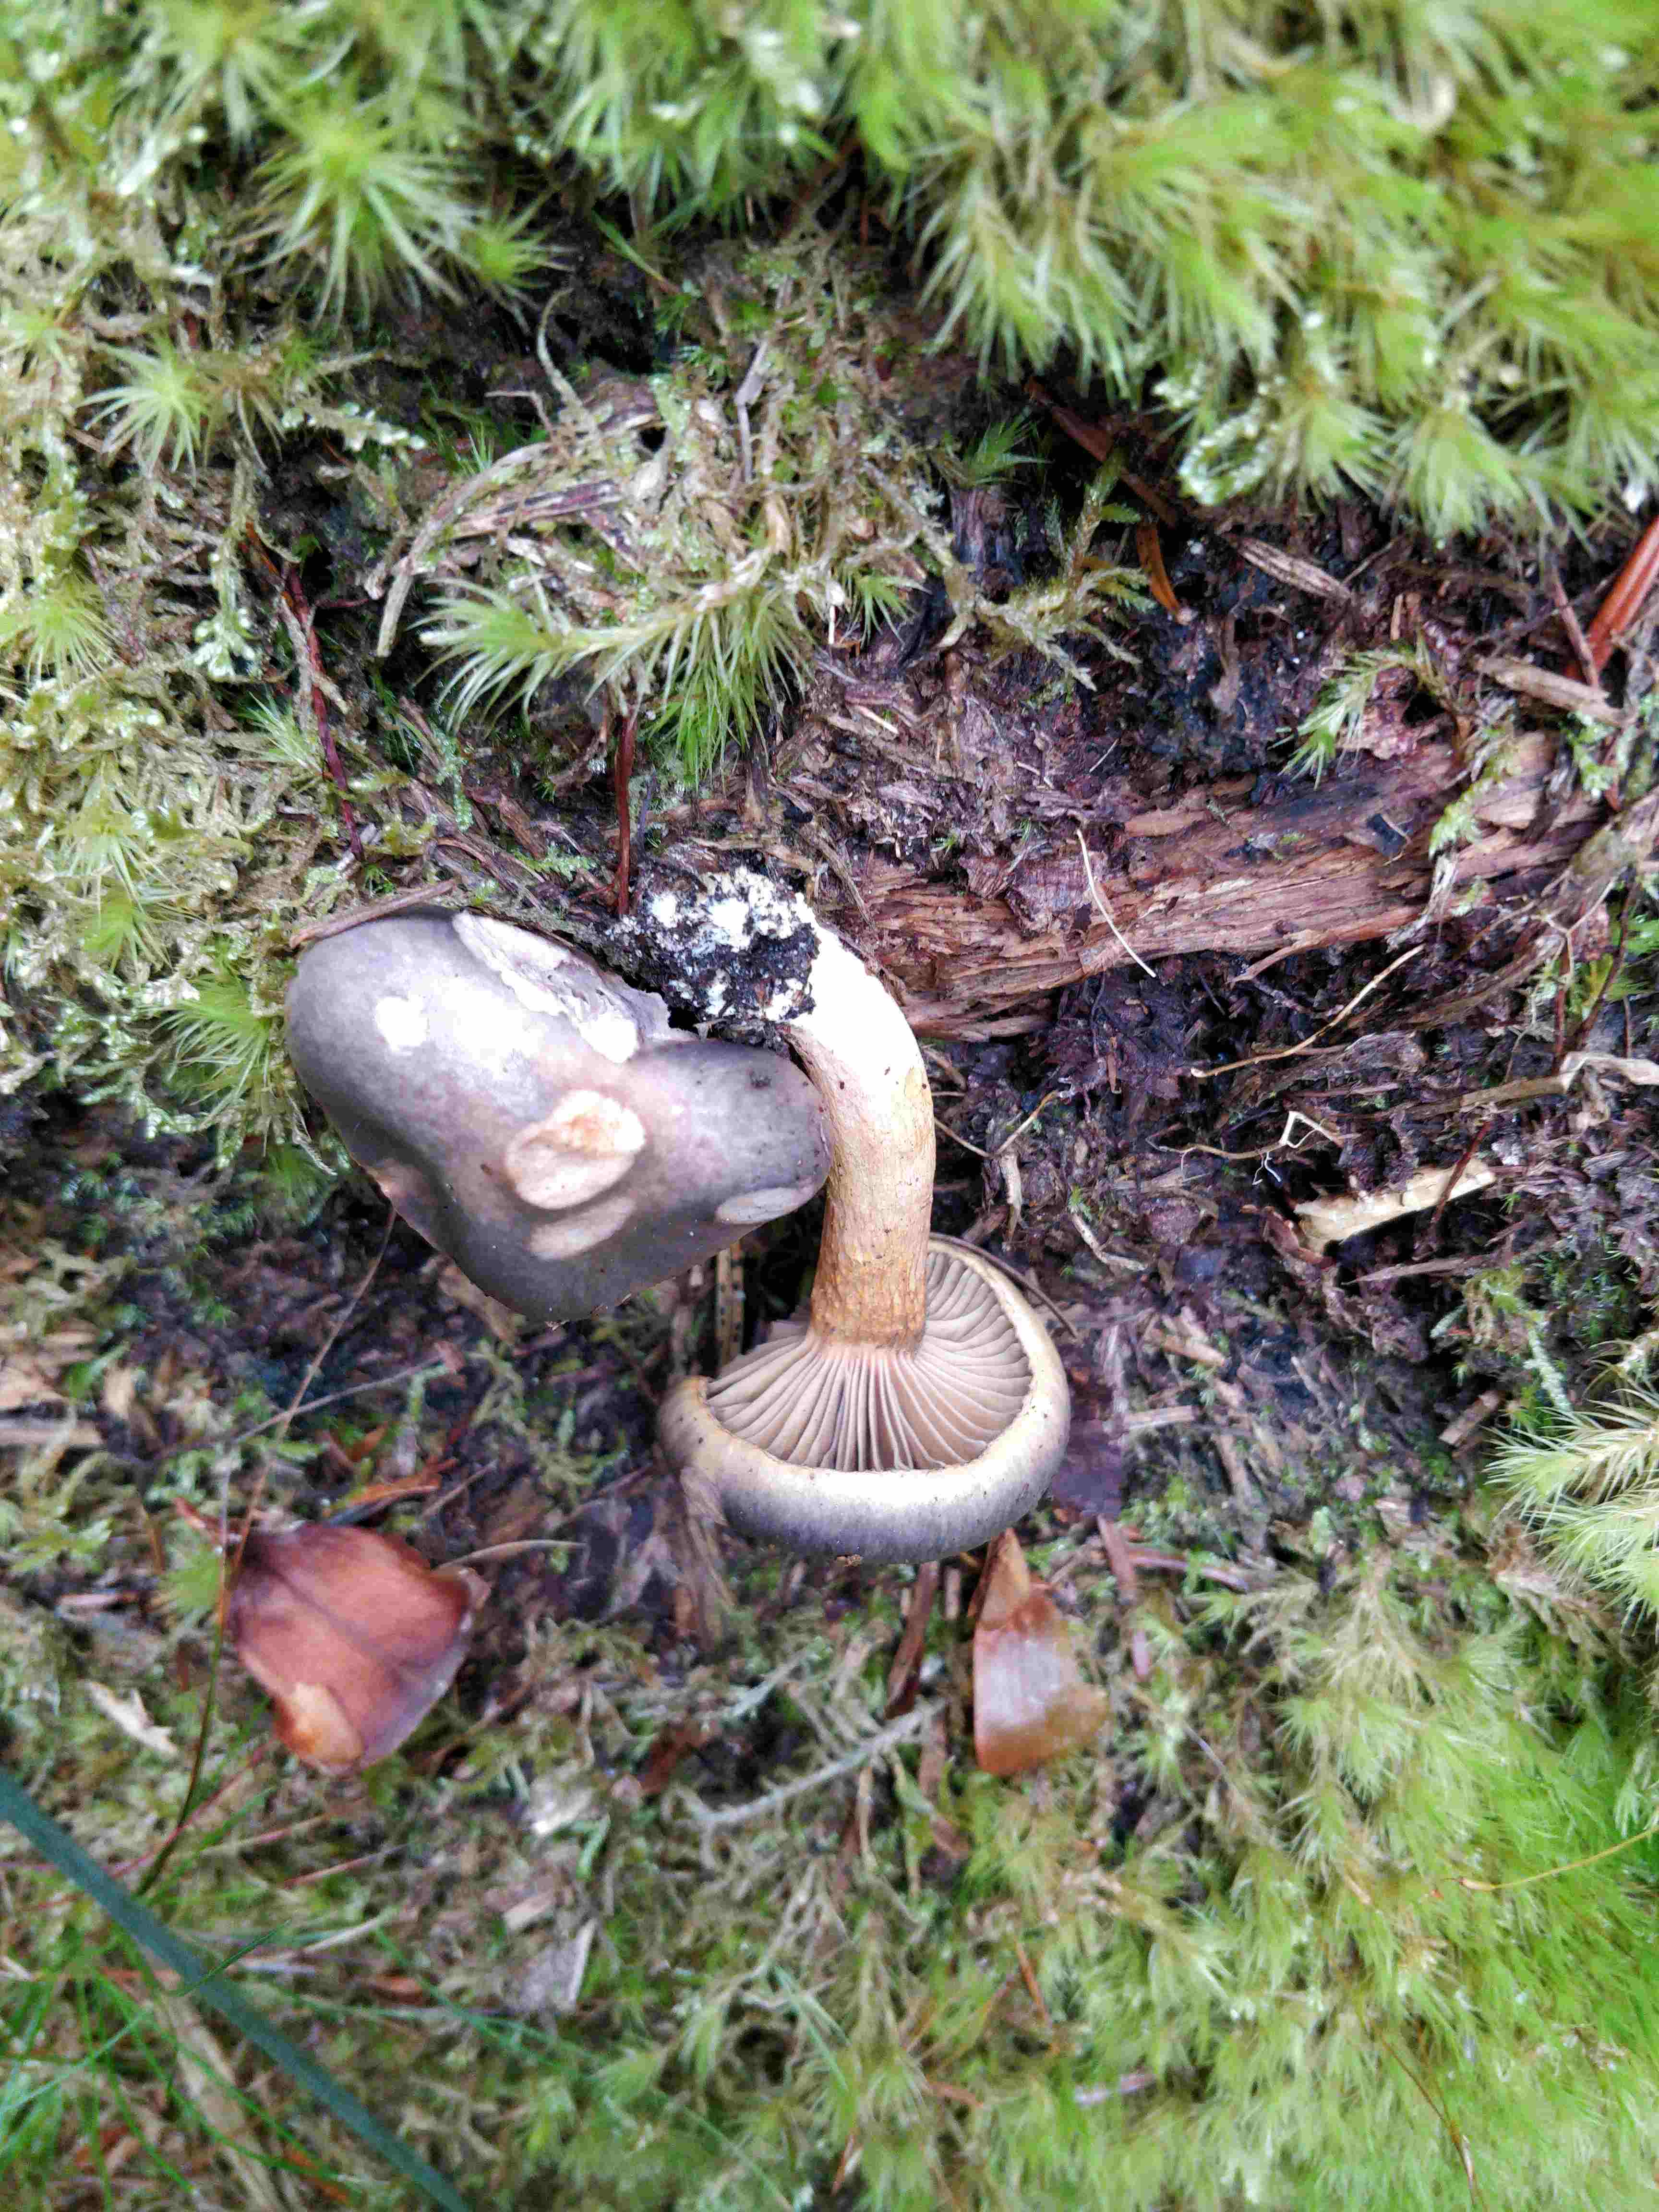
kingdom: Fungi
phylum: Basidiomycota
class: Agaricomycetes
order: Boletales
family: Gomphidiaceae
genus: Chroogomphus
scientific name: Chroogomphus rutilus
